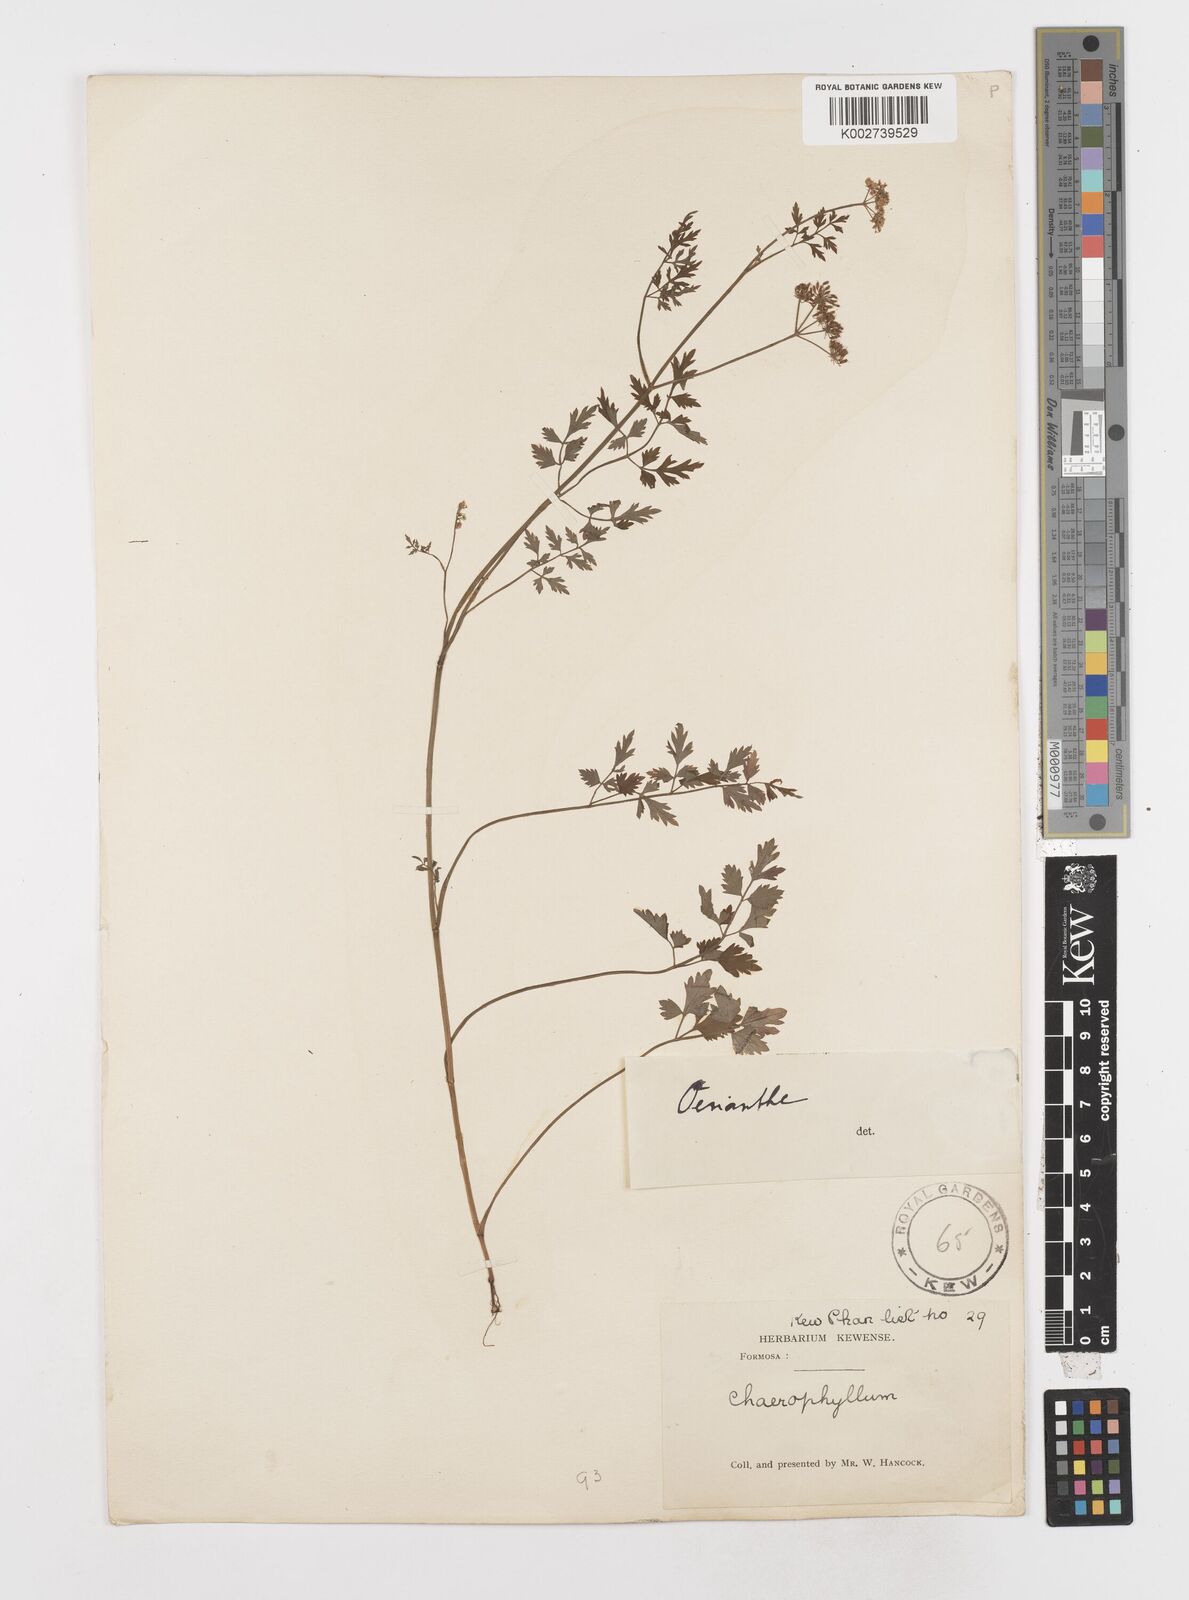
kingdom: Plantae
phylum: Tracheophyta
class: Magnoliopsida
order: Apiales
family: Apiaceae
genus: Oenanthe
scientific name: Oenanthe javanica
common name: Java water-dropwort
